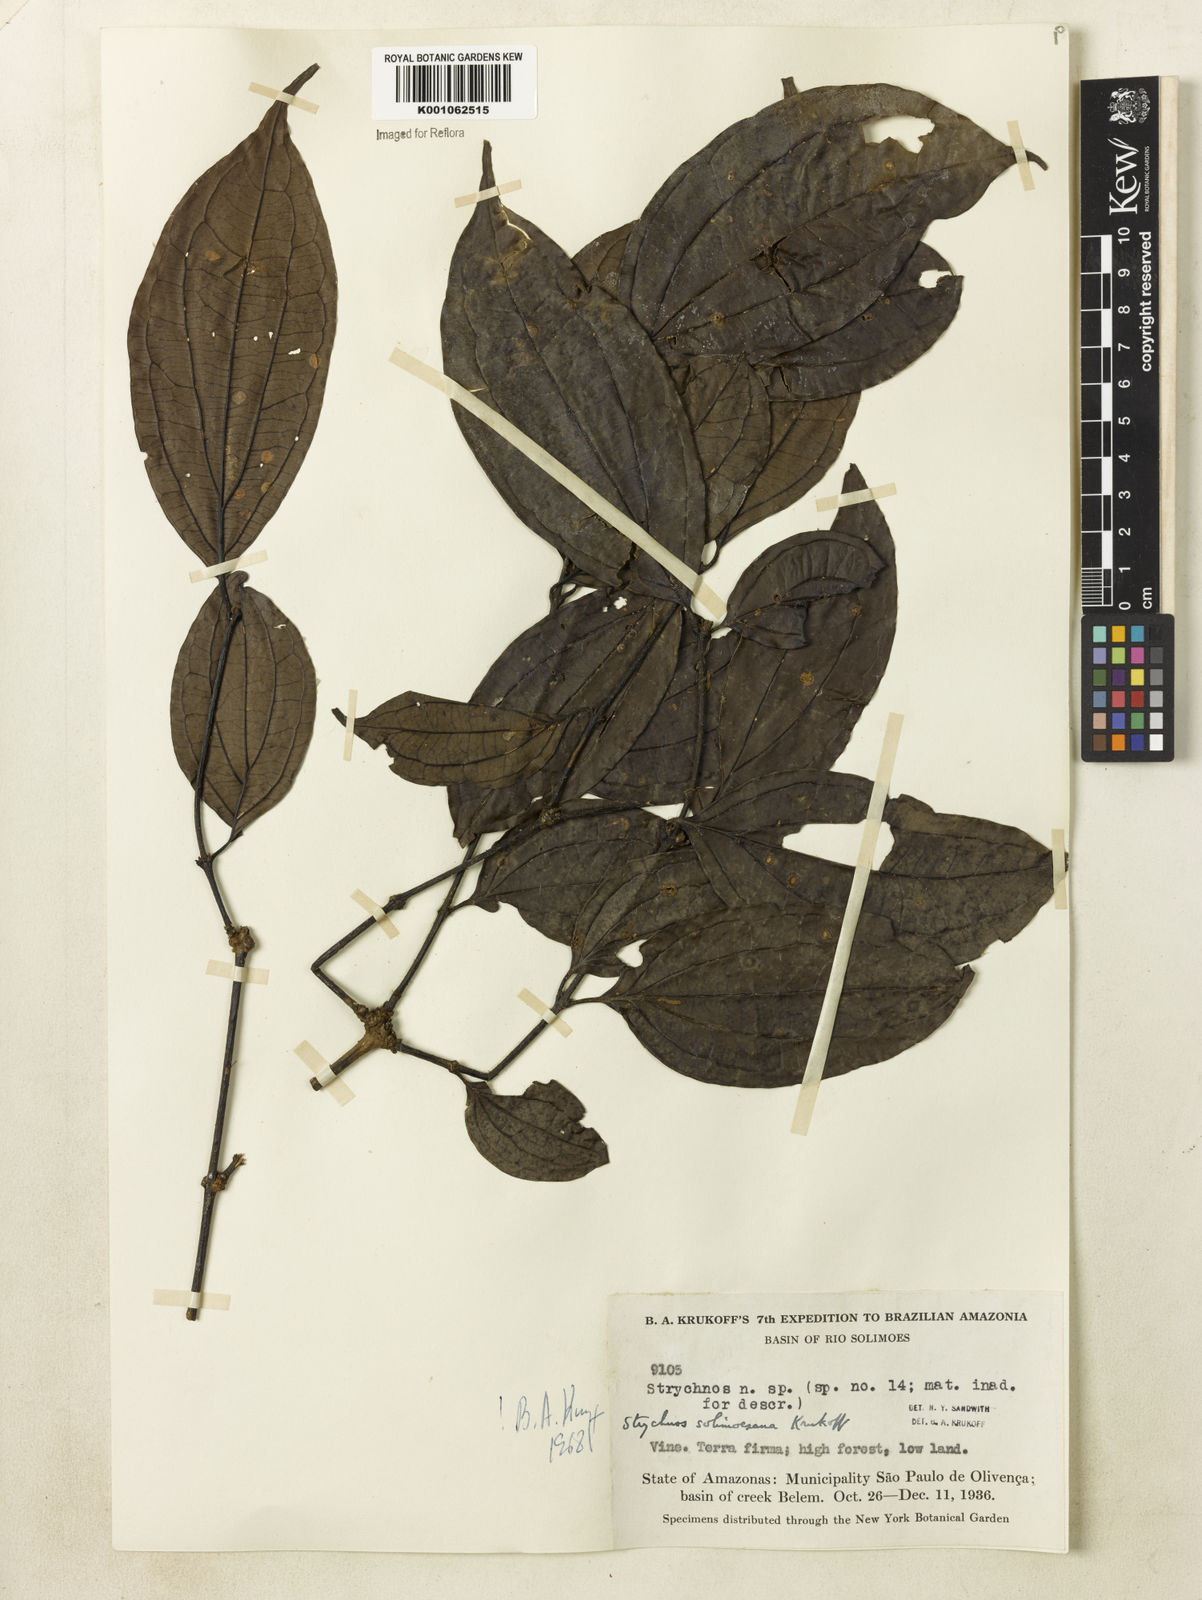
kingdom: Plantae
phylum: Tracheophyta
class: Magnoliopsida
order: Gentianales
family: Loganiaceae
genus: Strychnos
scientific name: Strychnos solimoesana
